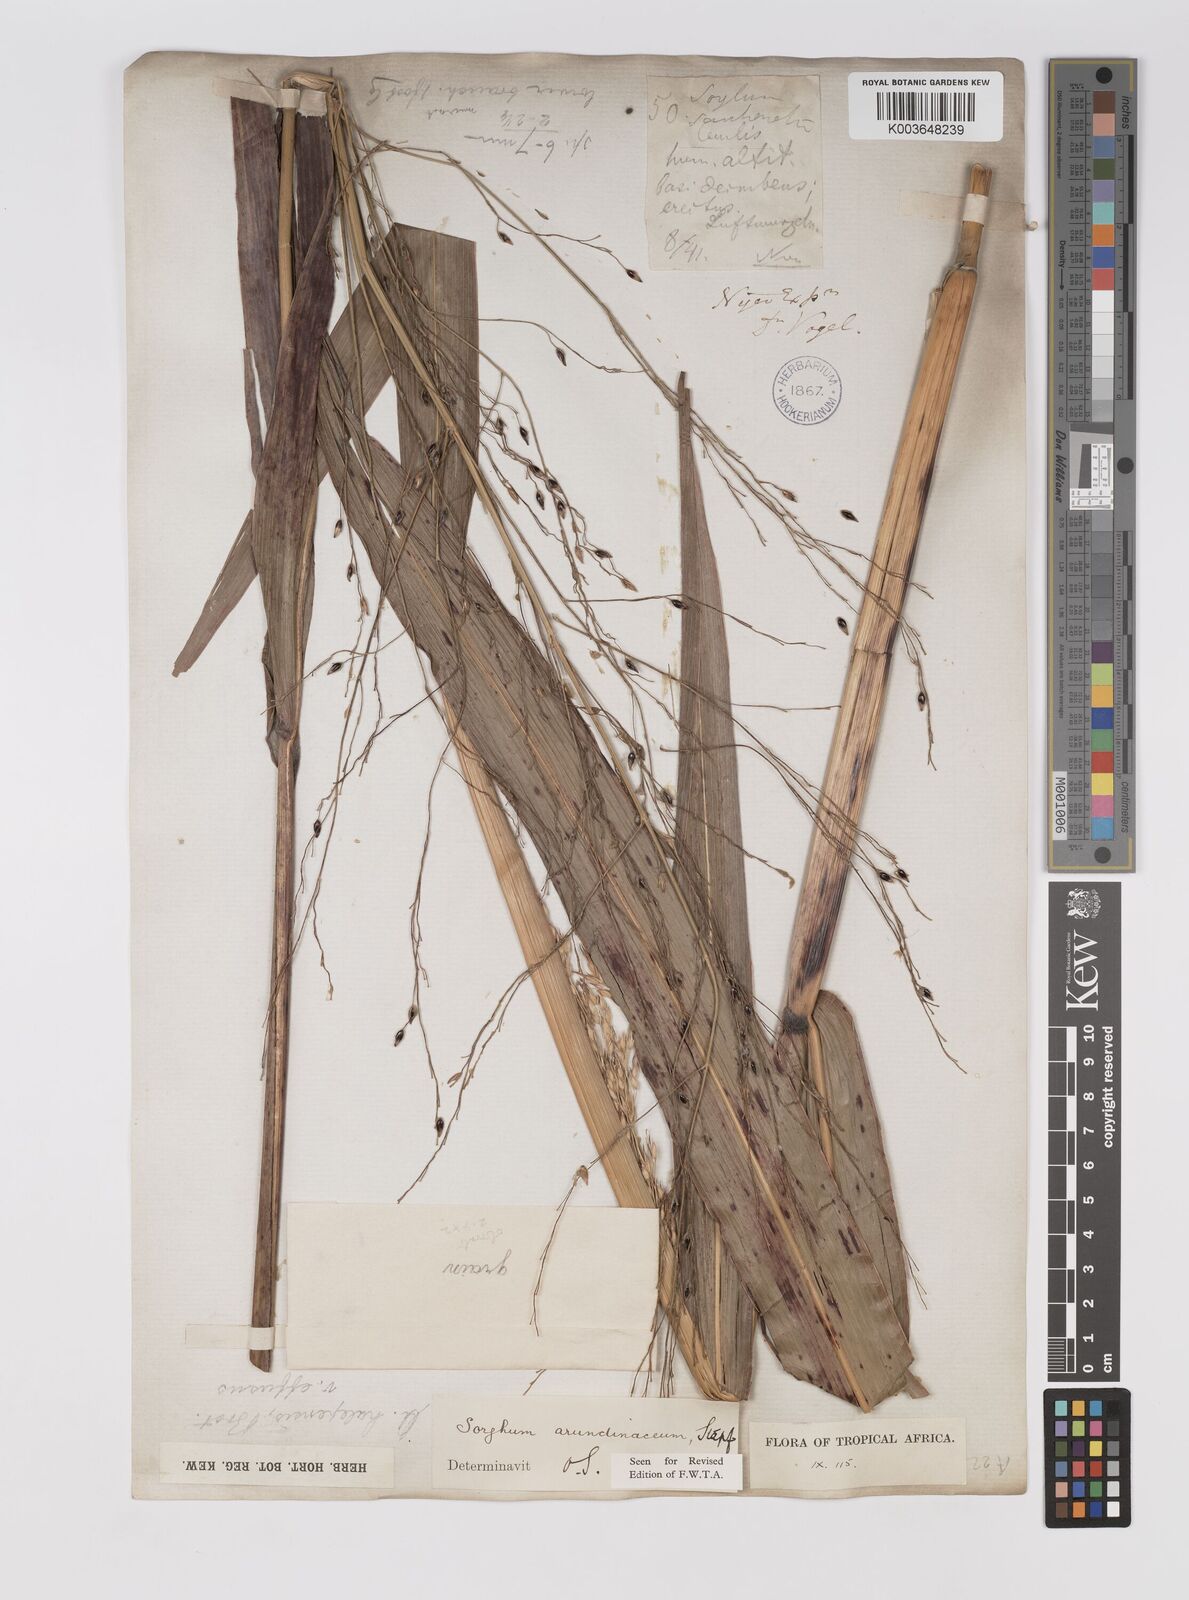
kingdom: Plantae
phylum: Tracheophyta
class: Liliopsida
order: Poales
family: Poaceae
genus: Sorghum
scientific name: Sorghum arundinaceum
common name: Sorghum
